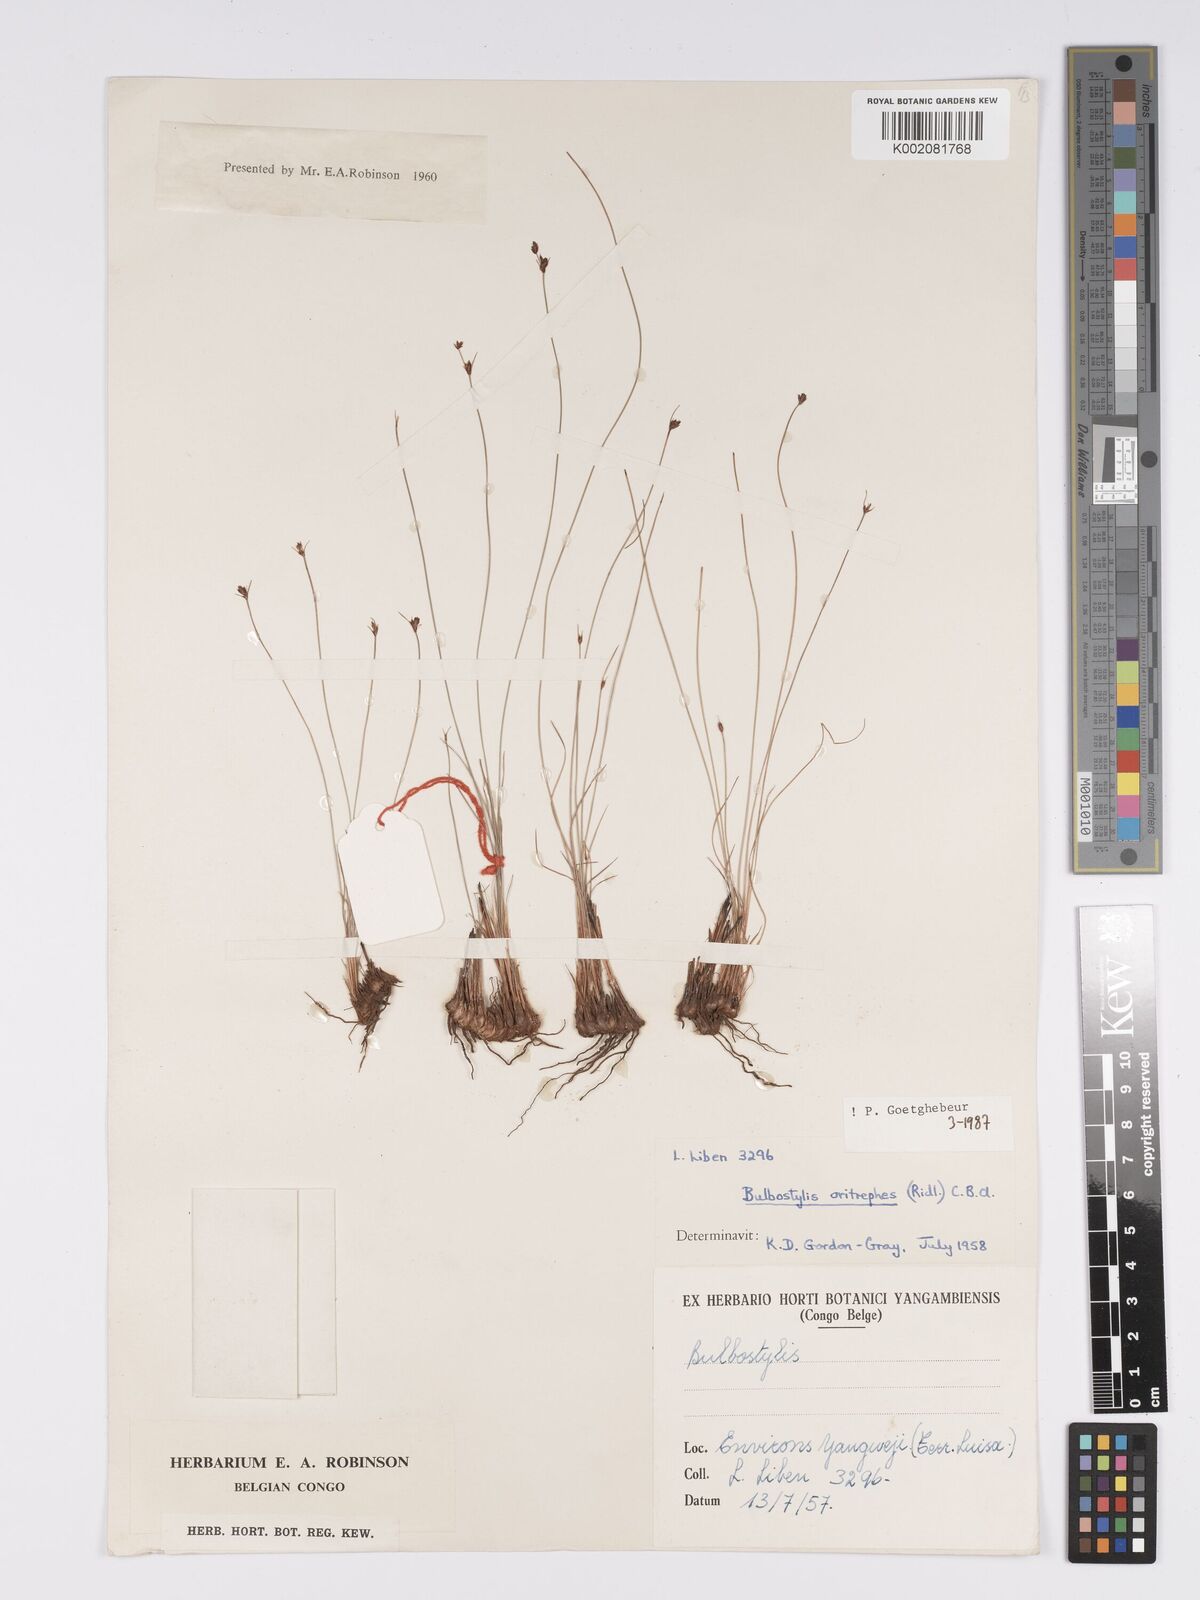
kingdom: Plantae
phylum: Tracheophyta
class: Liliopsida
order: Poales
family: Cyperaceae
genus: Bulbostylis
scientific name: Bulbostylis oritrephes
